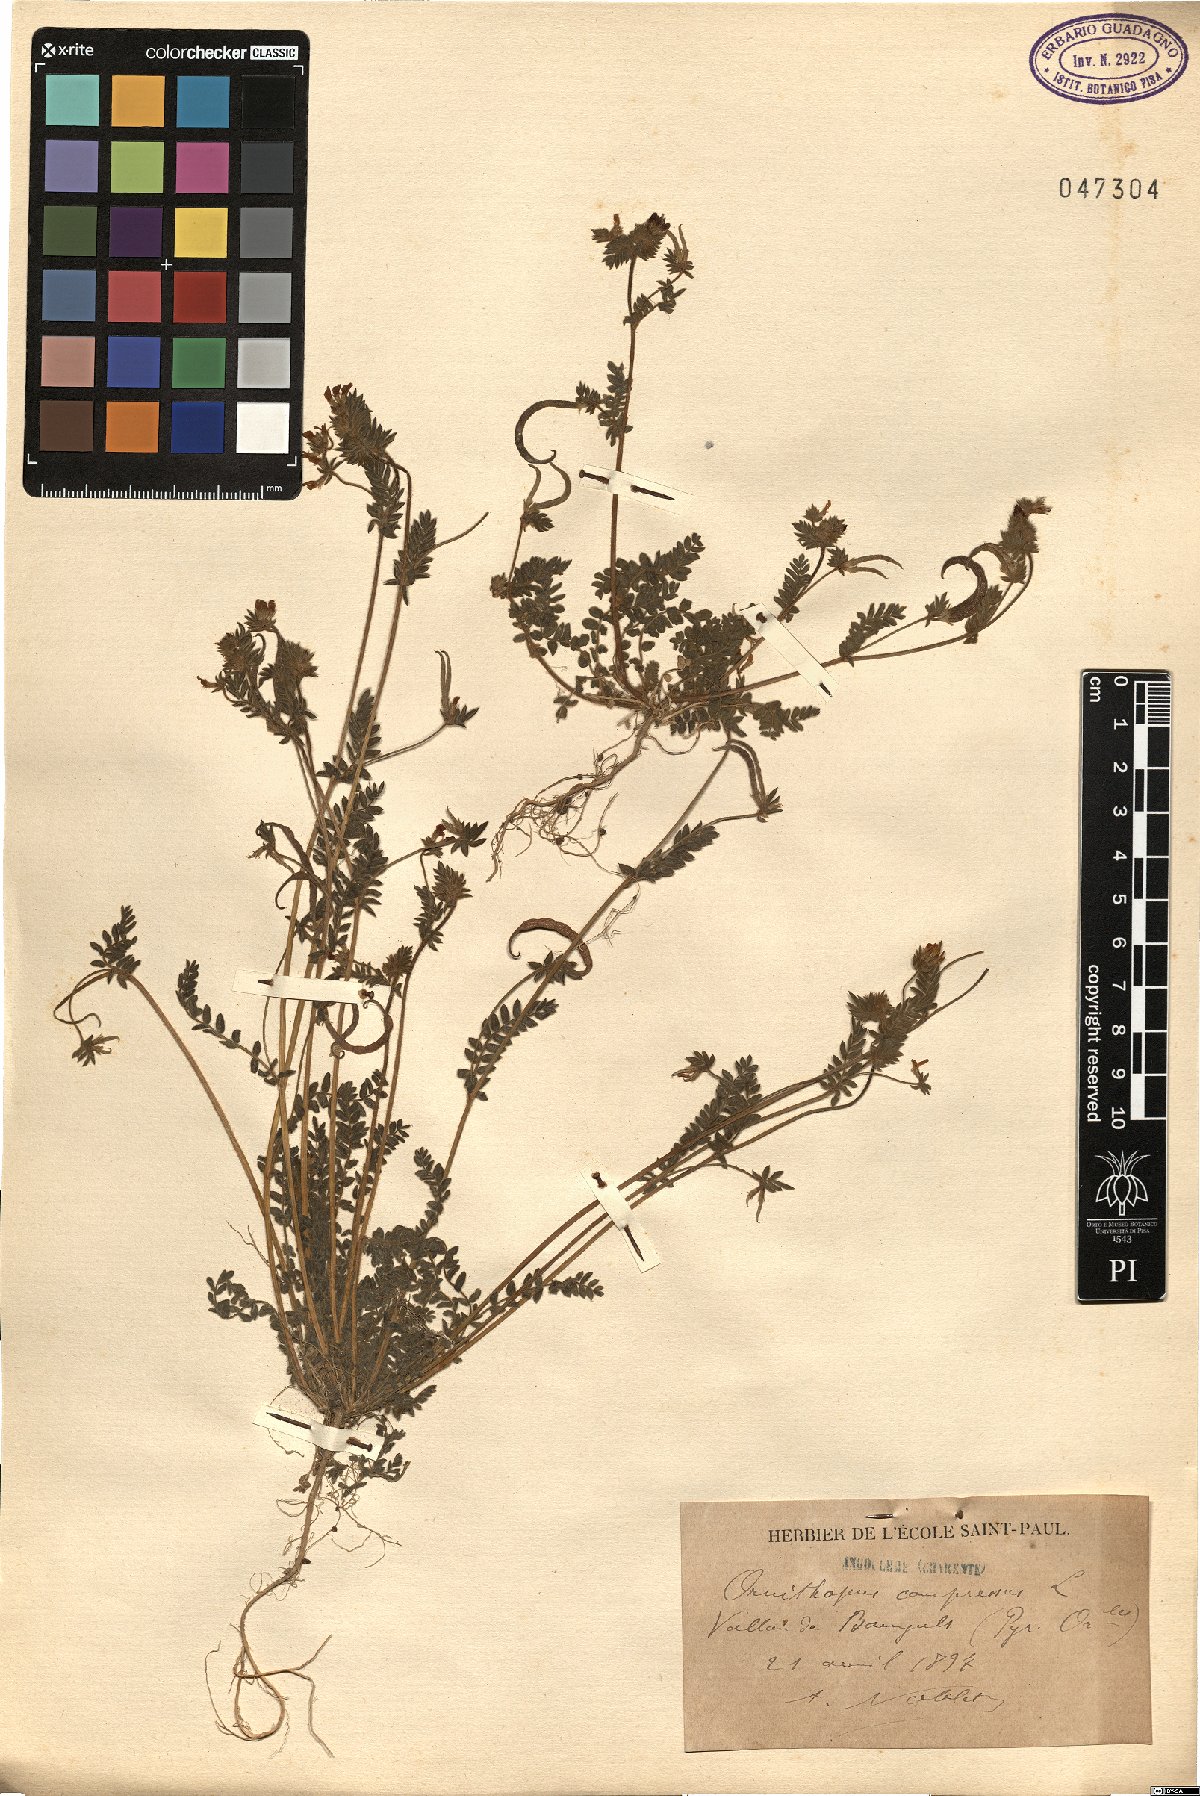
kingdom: Plantae
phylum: Tracheophyta
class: Magnoliopsida
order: Fabales
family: Fabaceae
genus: Ornithopus
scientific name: Ornithopus compressus
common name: Yellow serradella
